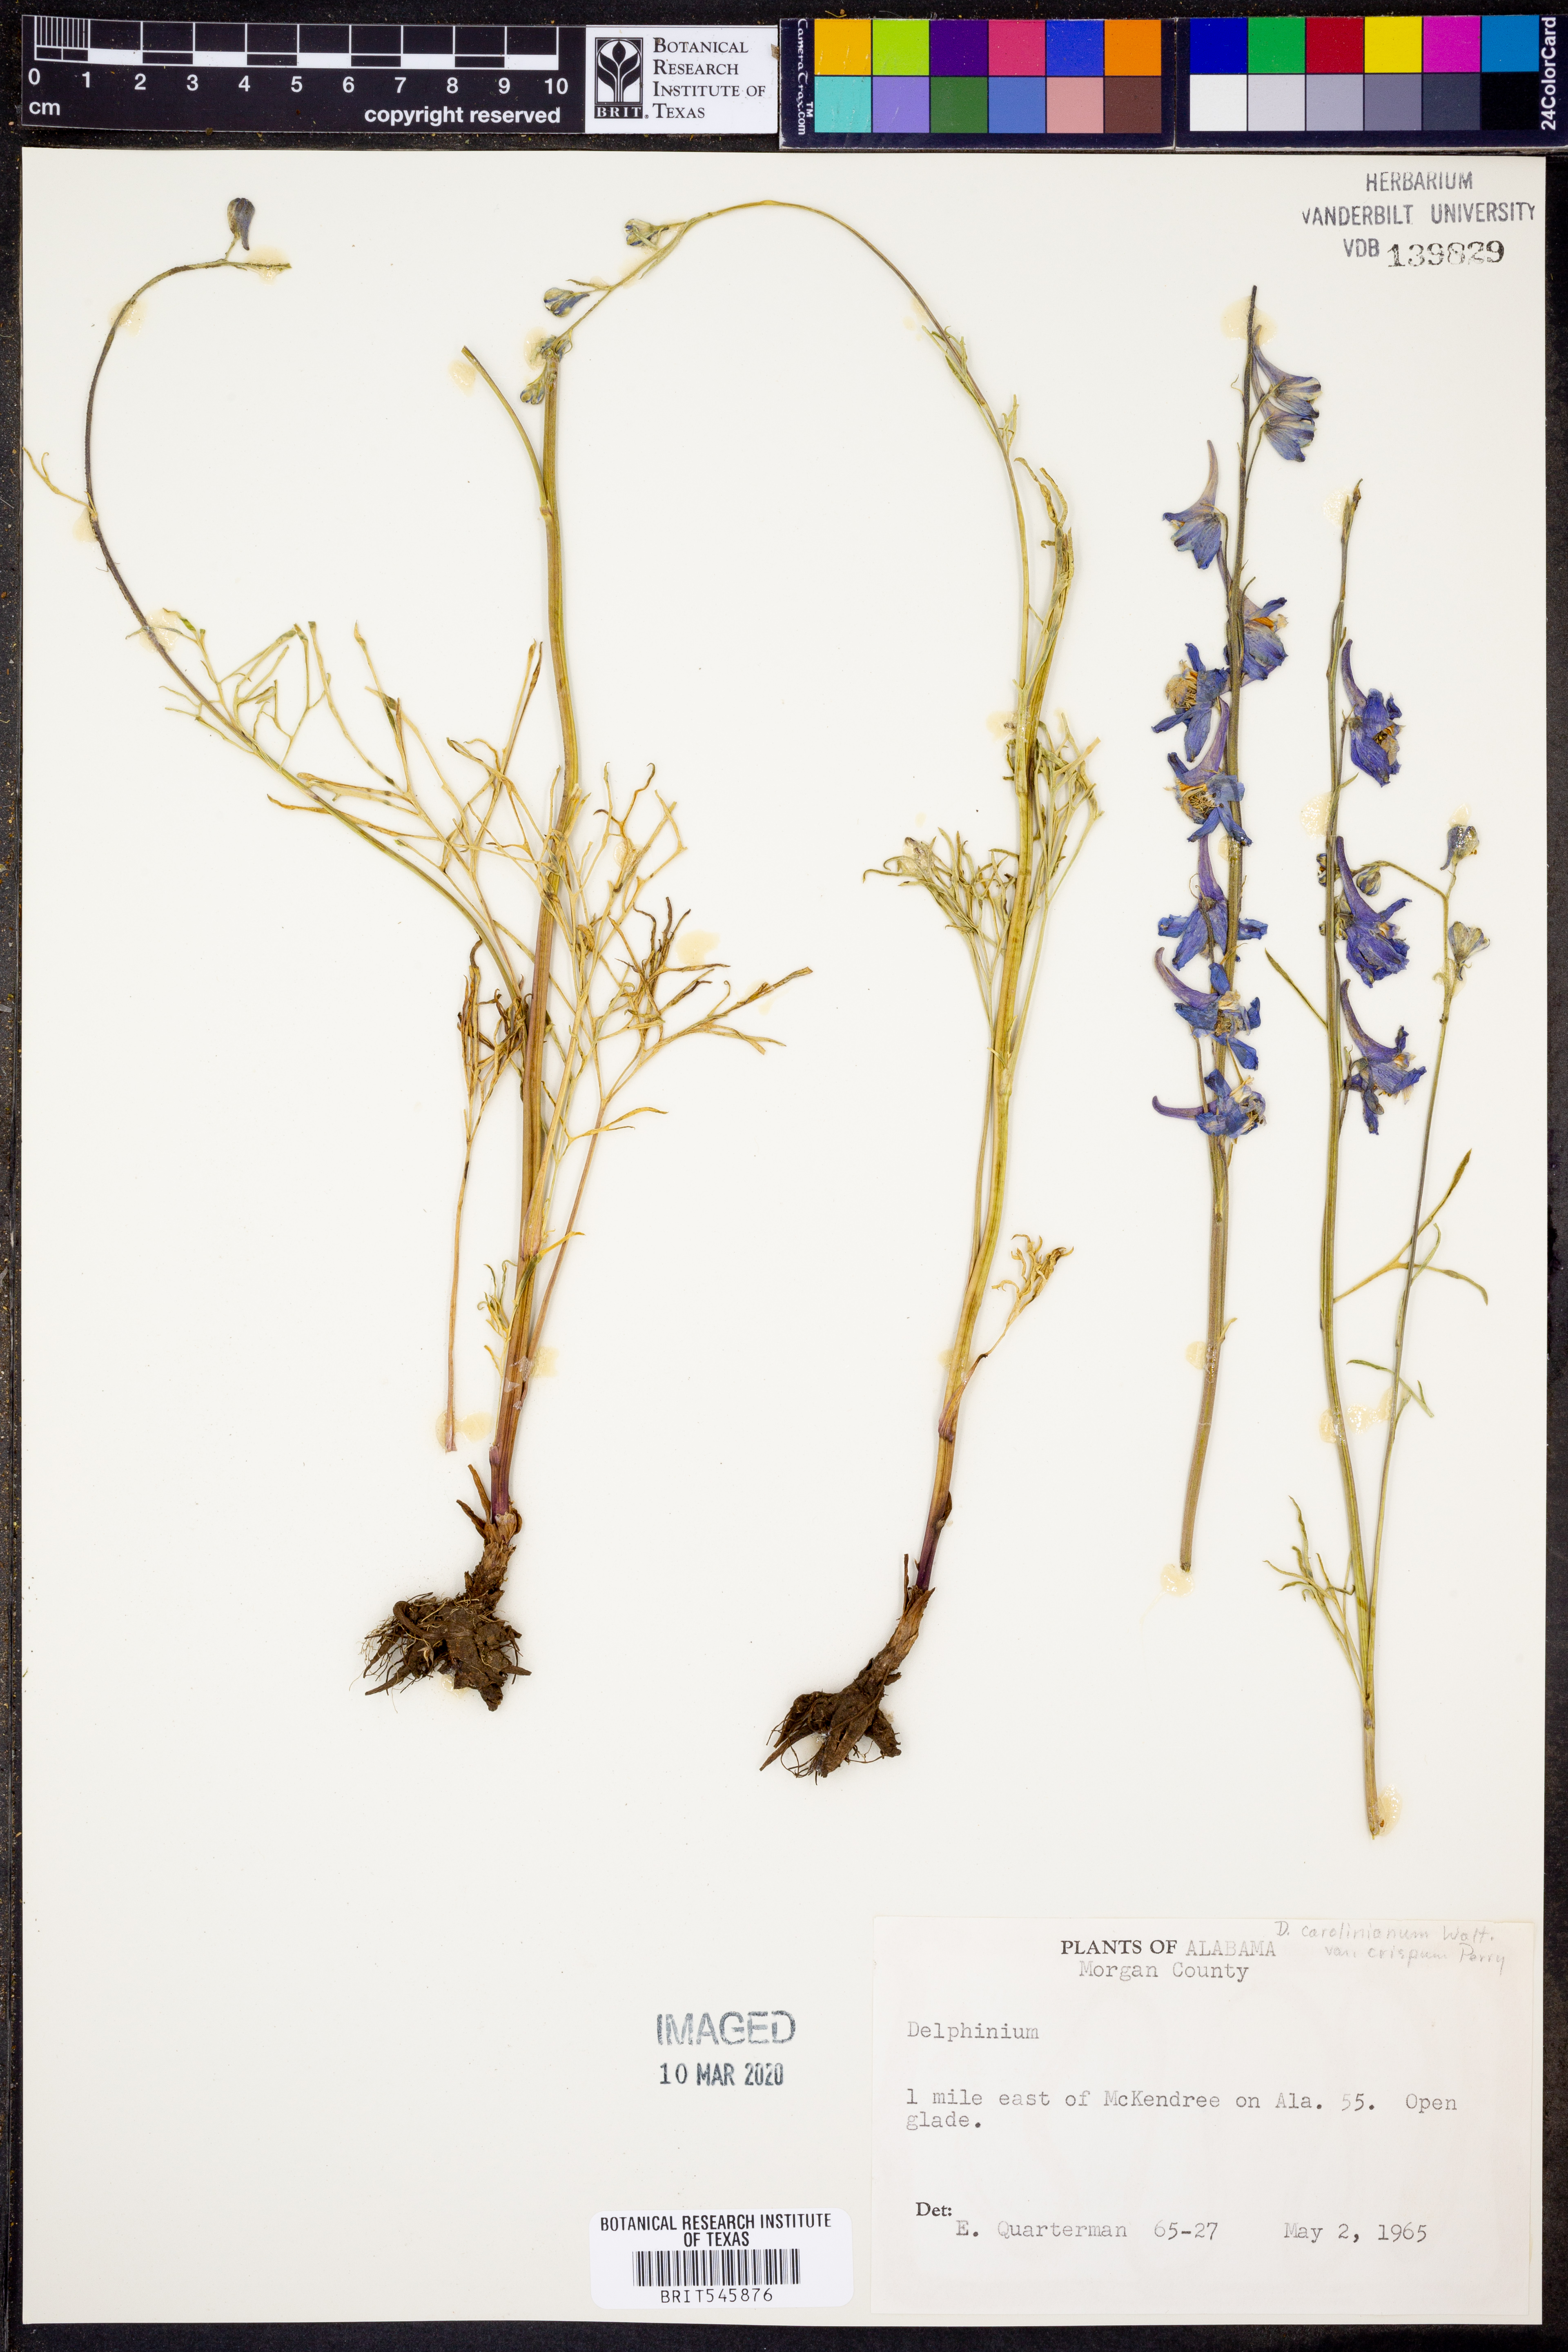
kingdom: Plantae
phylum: Tracheophyta
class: Magnoliopsida
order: Ranunculales
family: Ranunculaceae
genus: Delphinium
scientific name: Delphinium carolinianum
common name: Carolina larkspur
